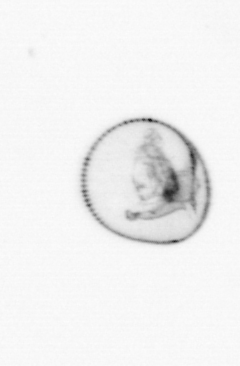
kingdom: Chromista
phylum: Myzozoa
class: Dinophyceae
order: Noctilucales
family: Noctilucaceae
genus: Noctiluca
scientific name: Noctiluca scintillans
